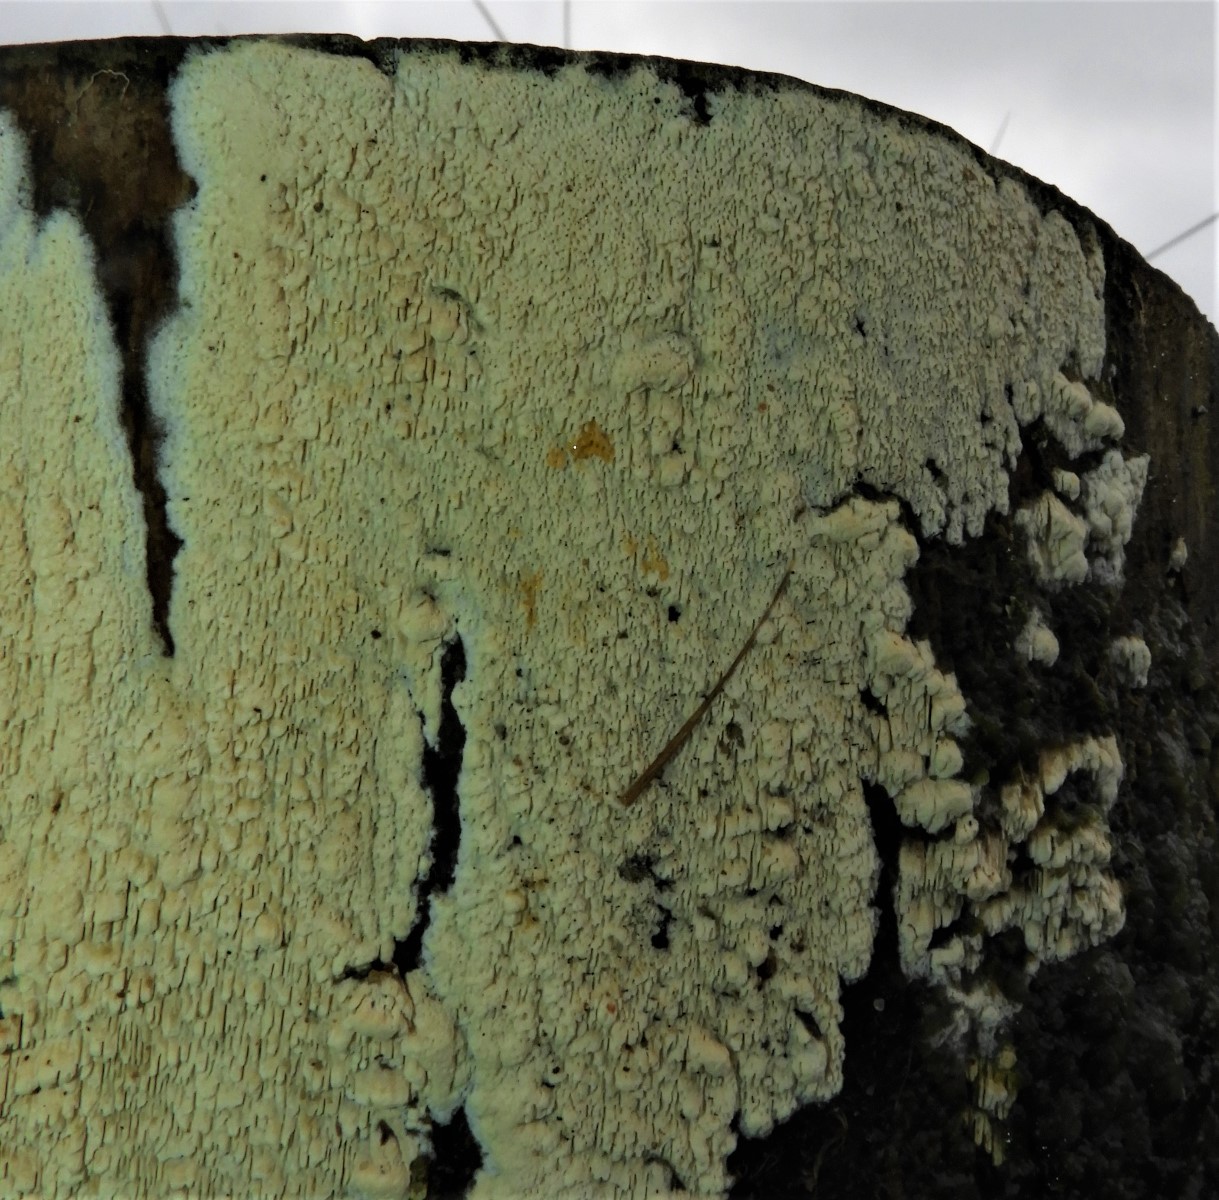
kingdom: Fungi
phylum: Basidiomycota
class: Agaricomycetes
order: Polyporales
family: Fomitopsidaceae
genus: Daedalea
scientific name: Daedalea xantha
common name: gul sejporesvamp
